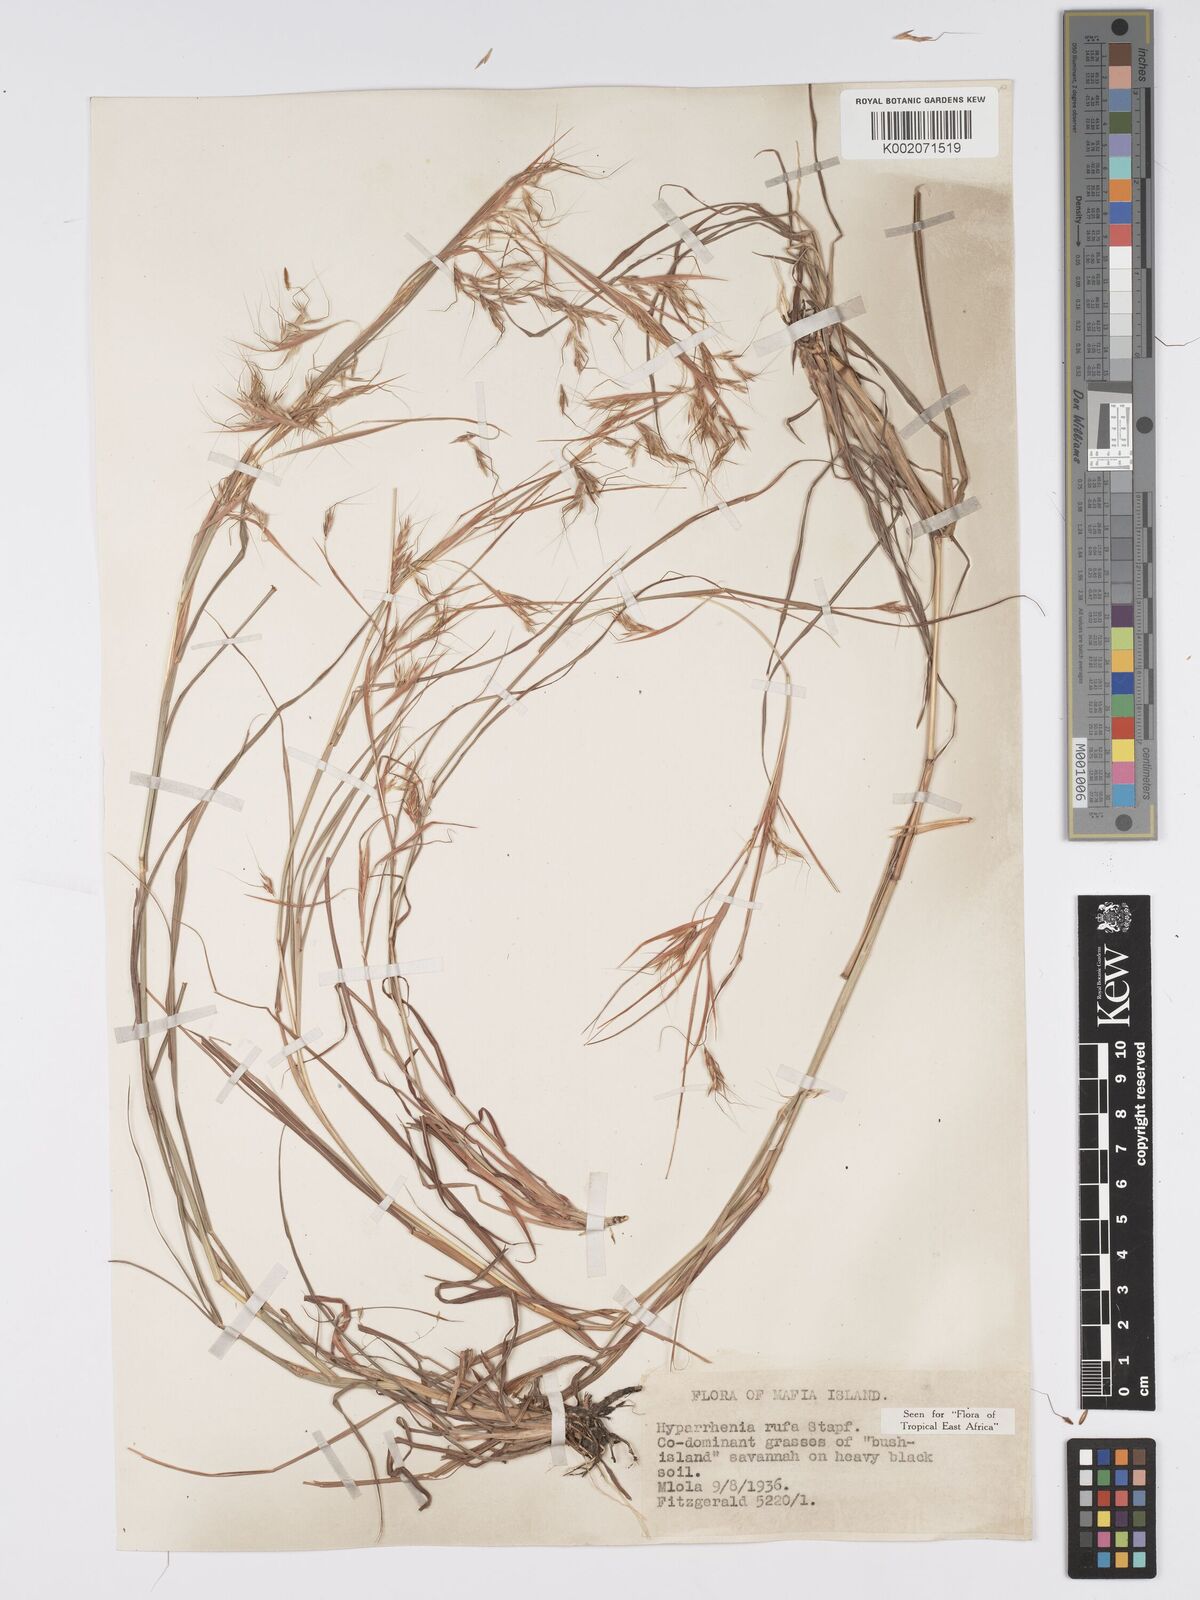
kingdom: Plantae
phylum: Tracheophyta
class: Liliopsida
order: Poales
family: Poaceae
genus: Hyparrhenia
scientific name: Hyparrhenia rufa
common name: Jaraguagrass
